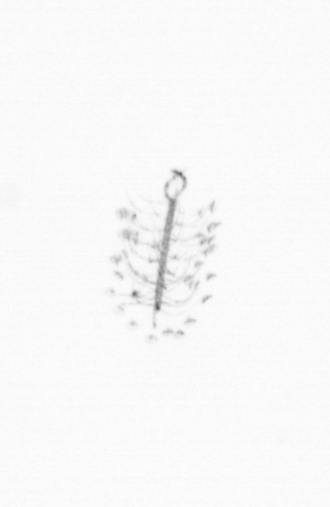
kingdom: Chromista
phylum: Ochrophyta
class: Bacillariophyceae
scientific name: Bacillariophyceae
